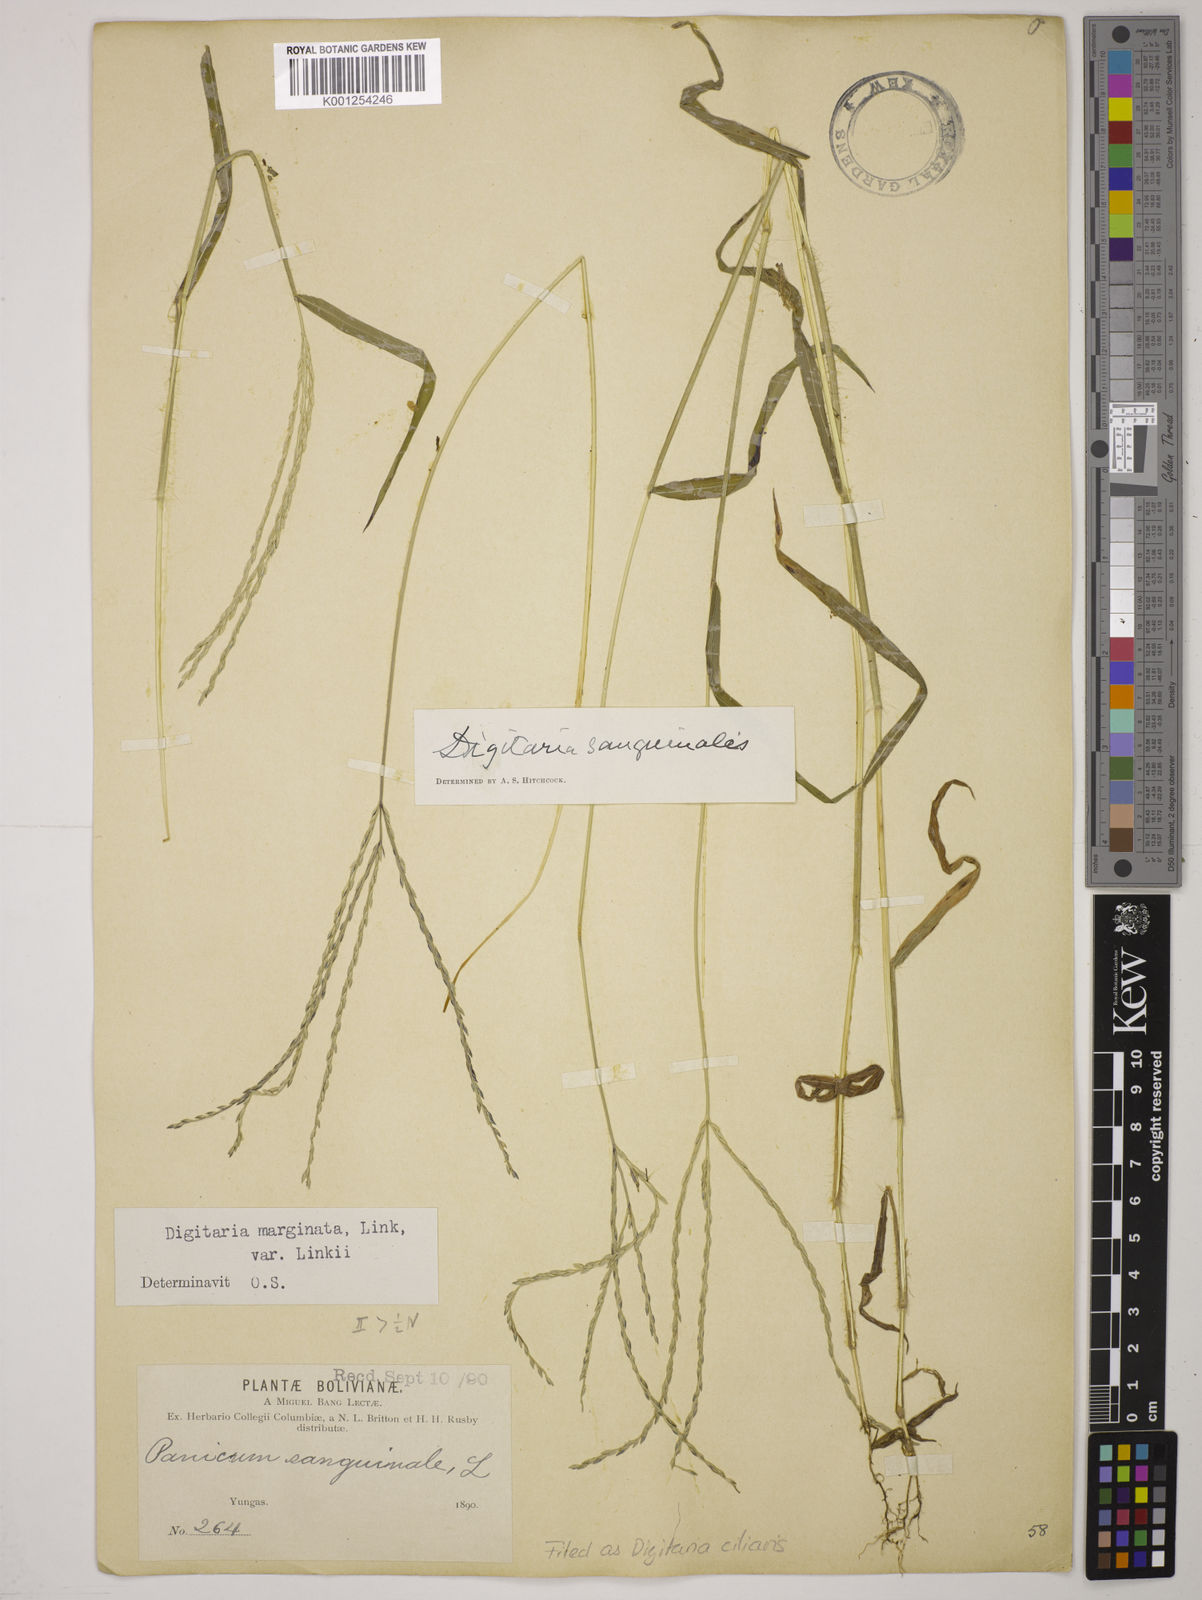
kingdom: Plantae
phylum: Tracheophyta
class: Liliopsida
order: Poales
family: Poaceae
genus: Digitaria
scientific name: Digitaria
